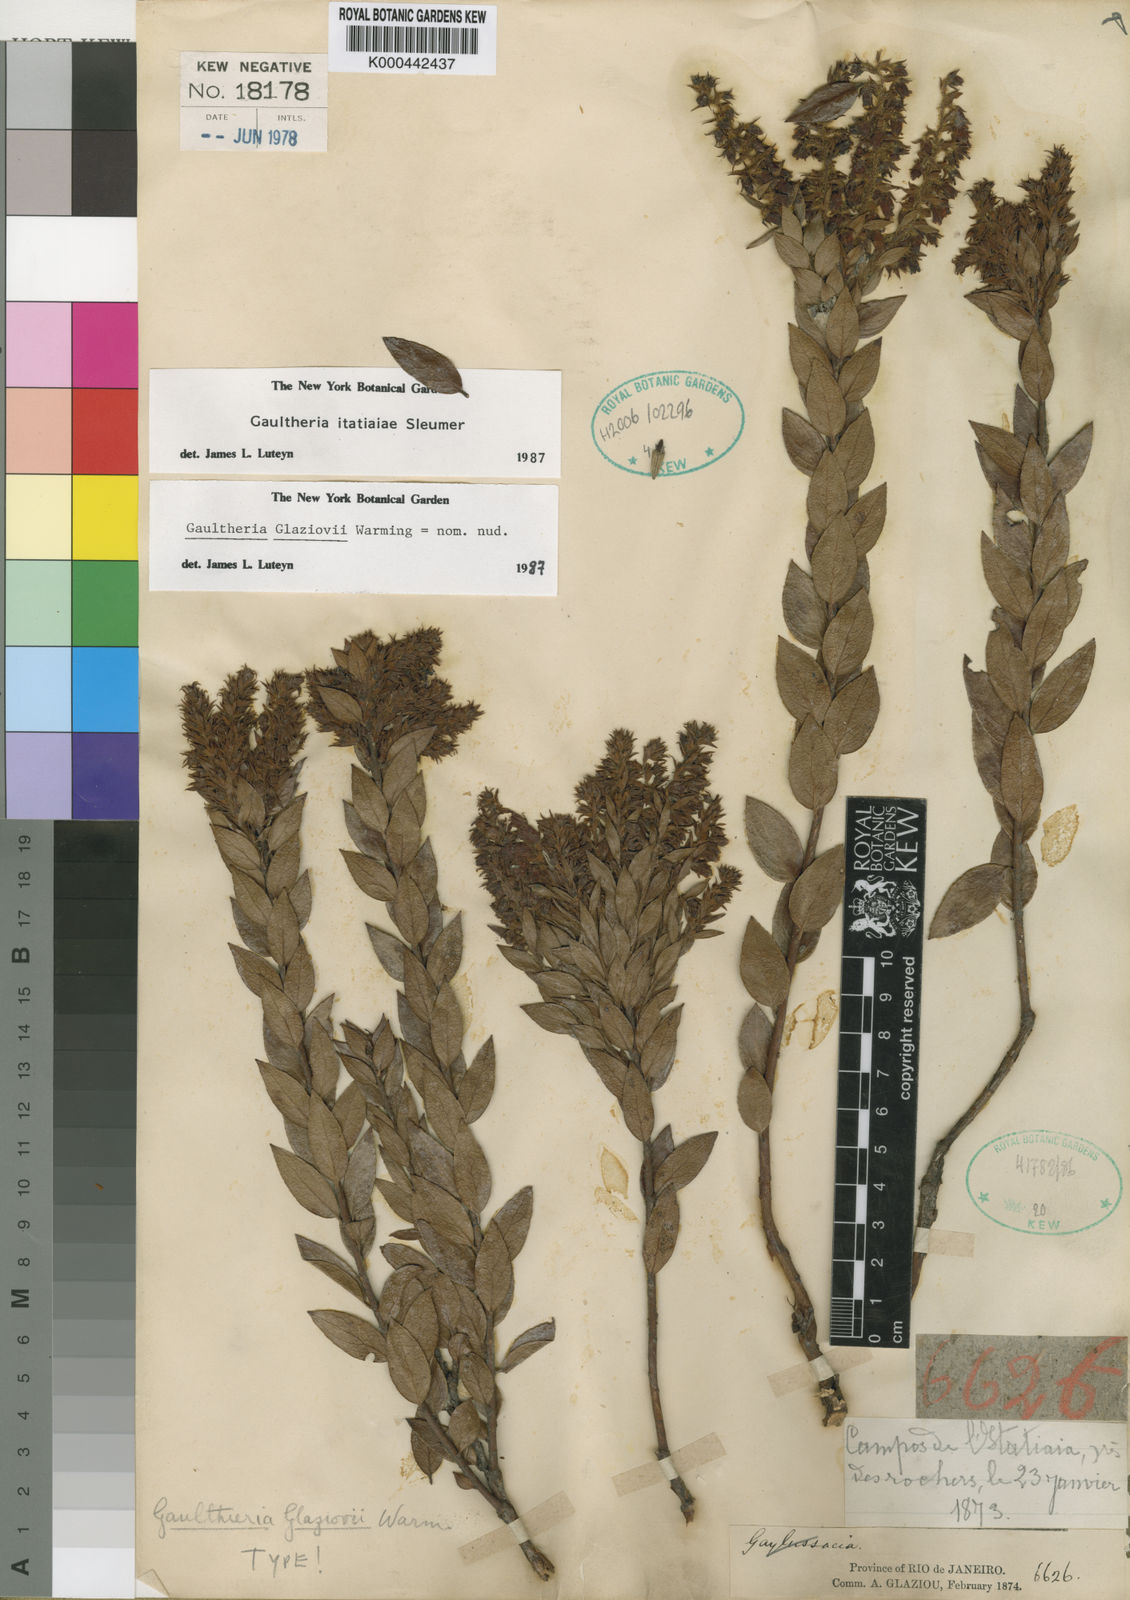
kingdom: Plantae
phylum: Tracheophyta
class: Magnoliopsida
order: Ericales
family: Ericaceae
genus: Gaultheria
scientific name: Gaultheria
